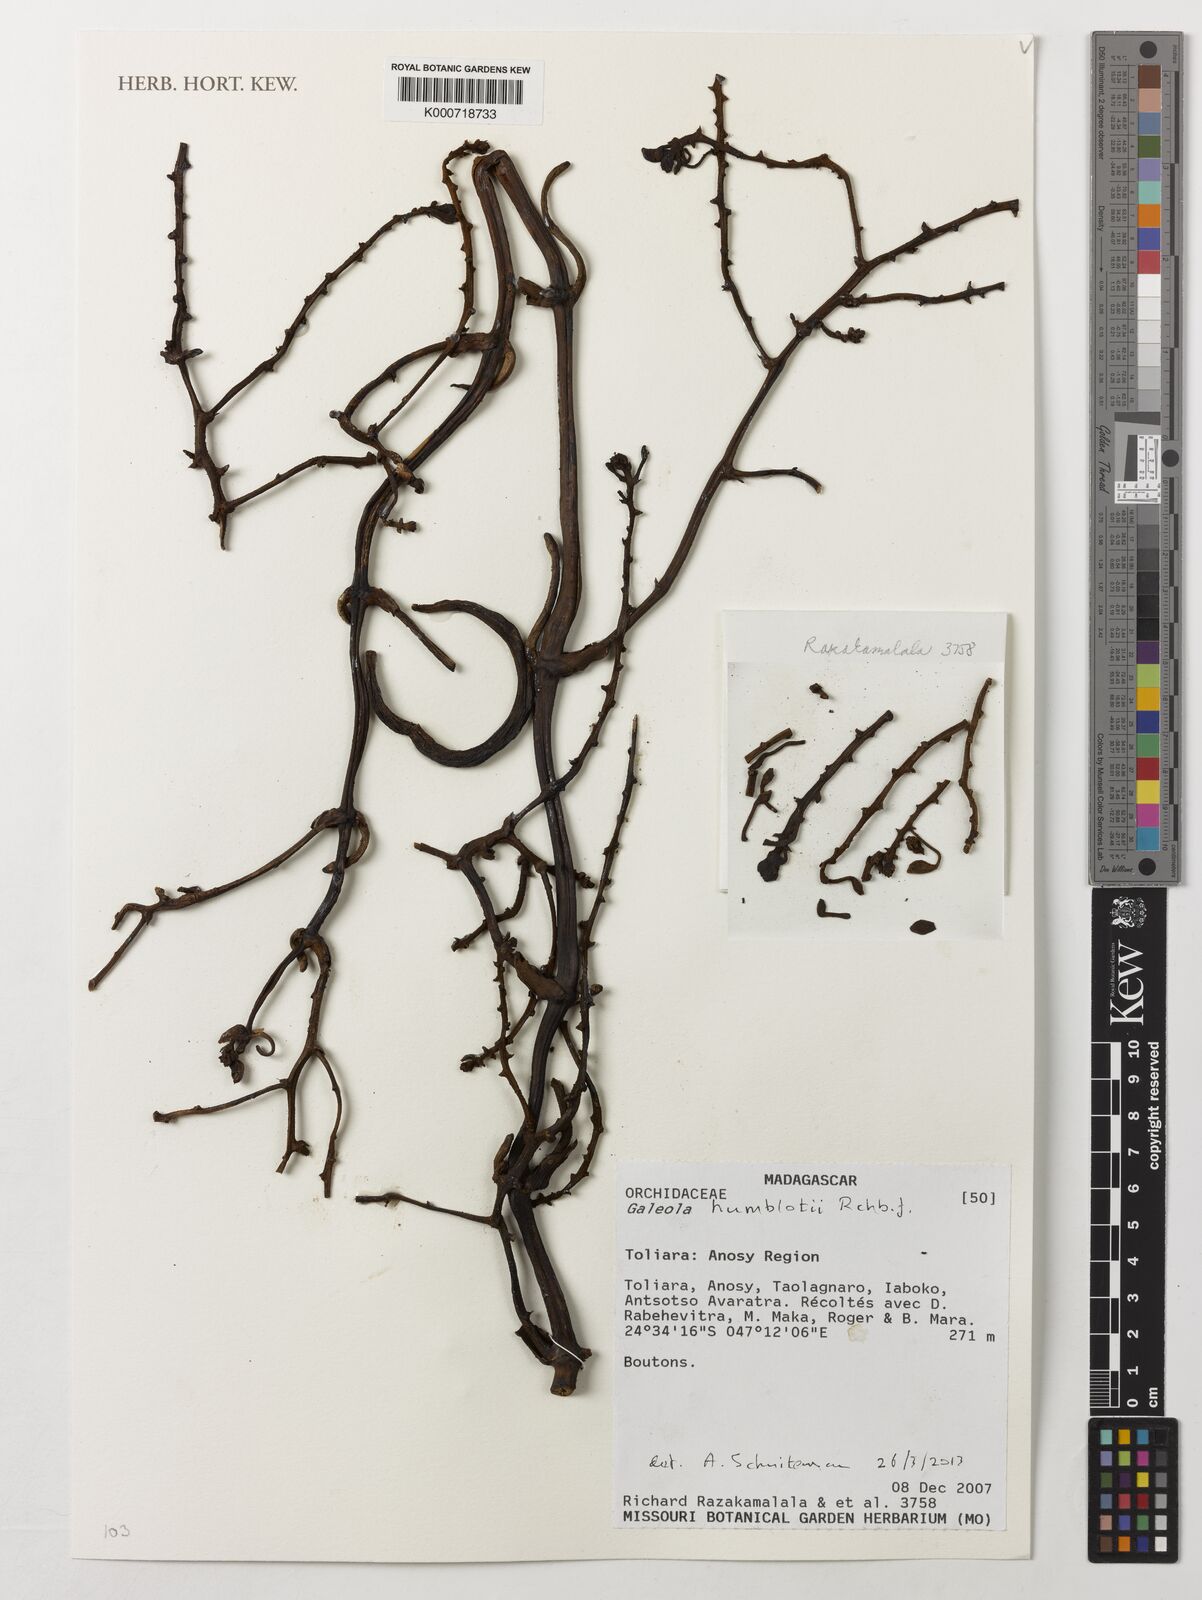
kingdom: Plantae
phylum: Tracheophyta
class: Liliopsida
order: Asparagales
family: Orchidaceae
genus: Galeola
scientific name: Galeola humblotii
